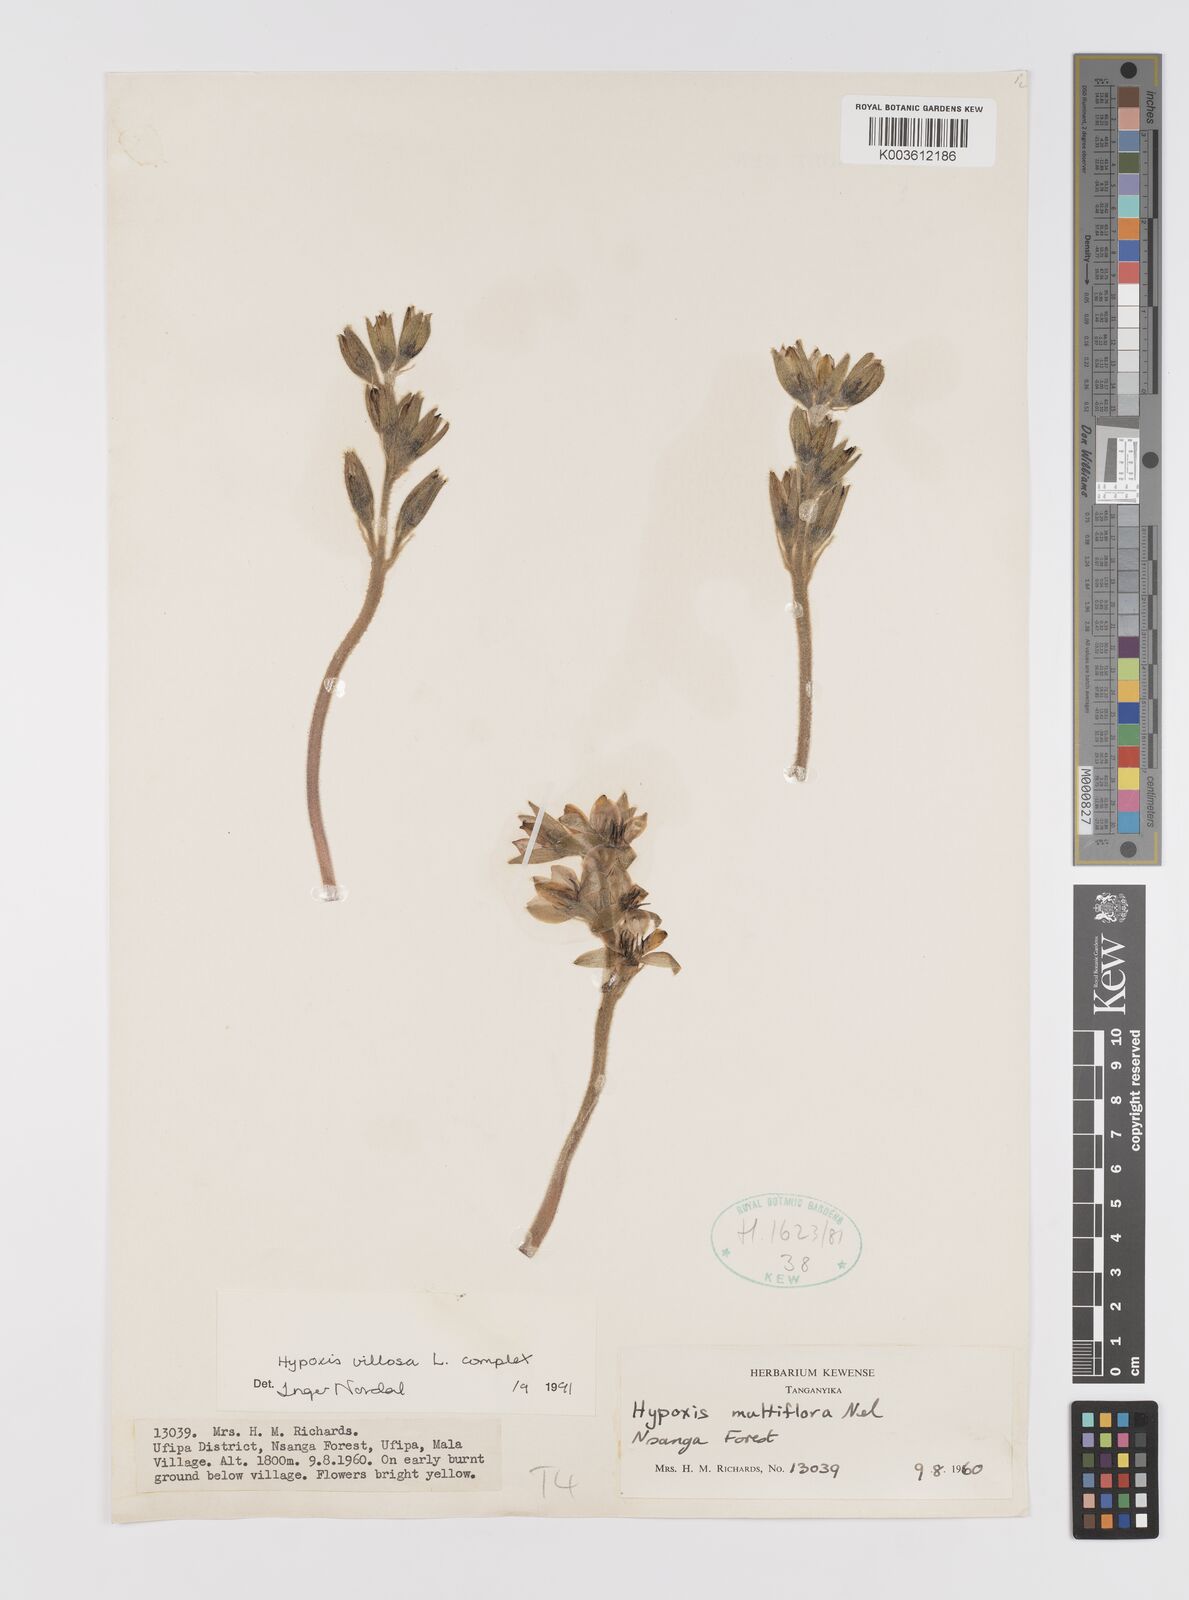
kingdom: Plantae
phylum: Tracheophyta
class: Liliopsida
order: Asparagales
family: Hypoxidaceae
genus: Hypoxis
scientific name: Hypoxis
